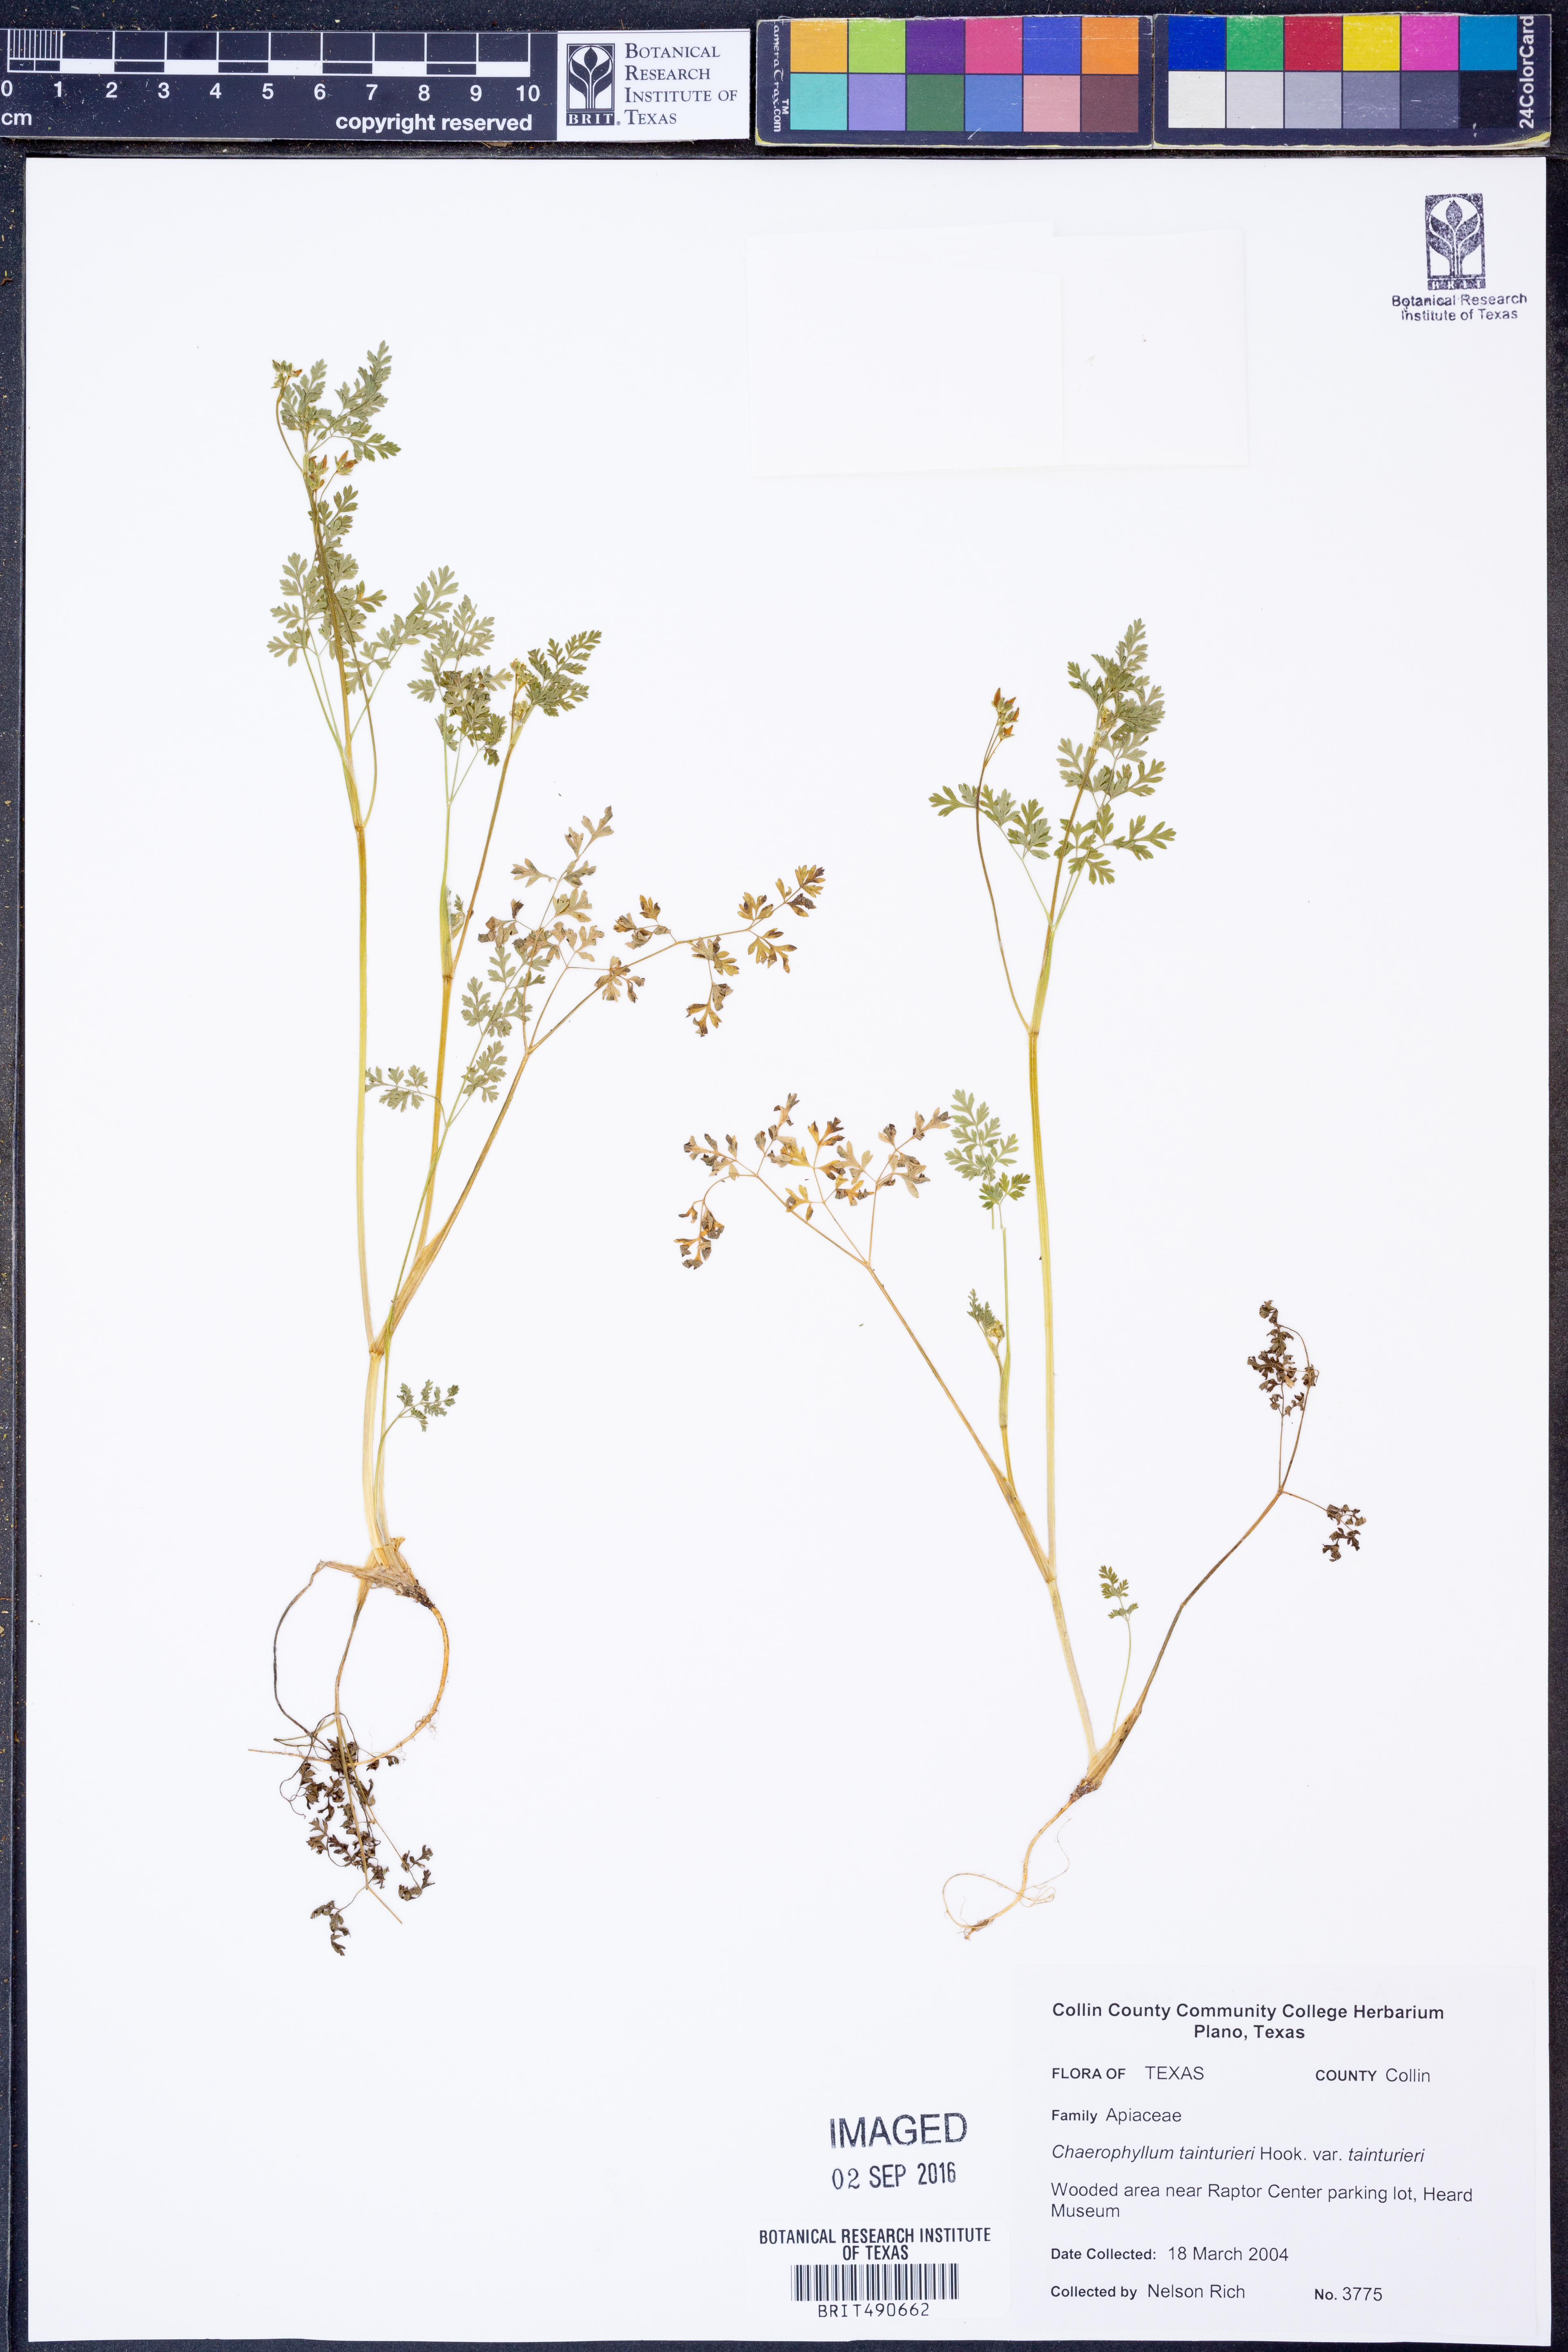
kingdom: Plantae
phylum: Tracheophyta
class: Magnoliopsida
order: Apiales
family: Apiaceae
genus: Chaerophyllum
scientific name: Chaerophyllum tainturieri
